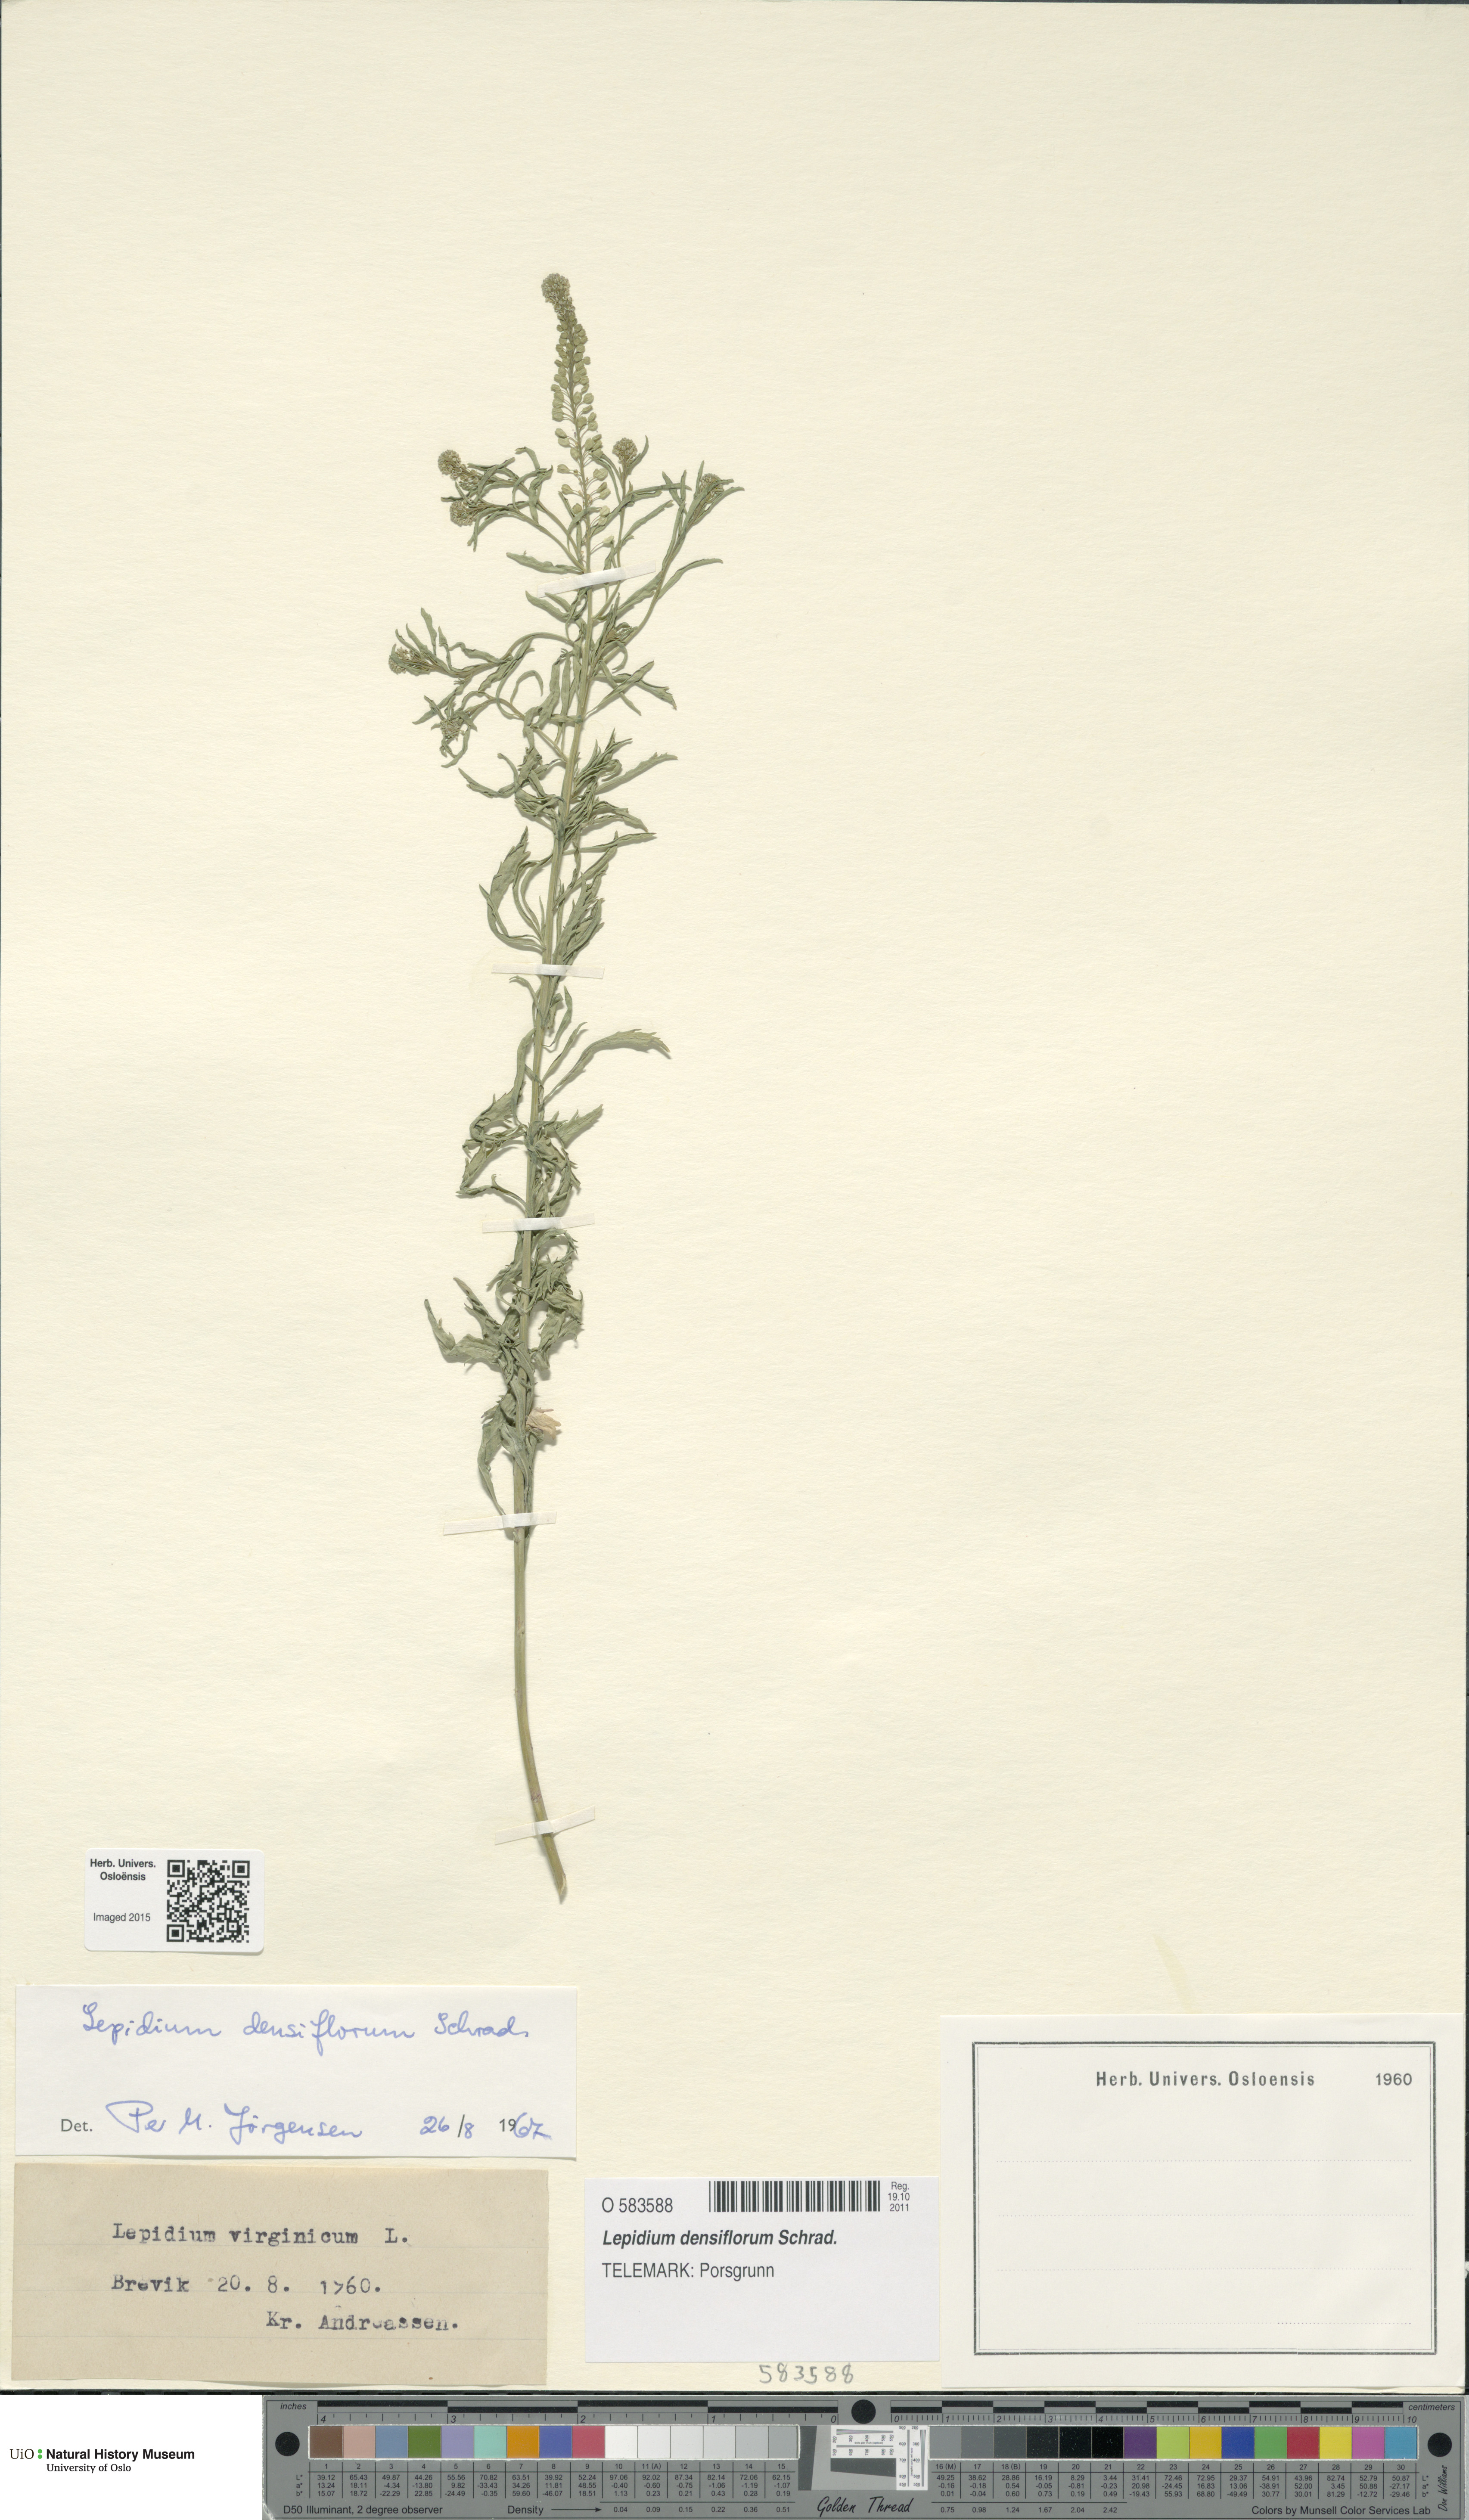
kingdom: Plantae
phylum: Tracheophyta
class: Magnoliopsida
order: Brassicales
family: Brassicaceae
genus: Lepidium
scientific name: Lepidium densiflorum
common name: Miner's pepperwort
